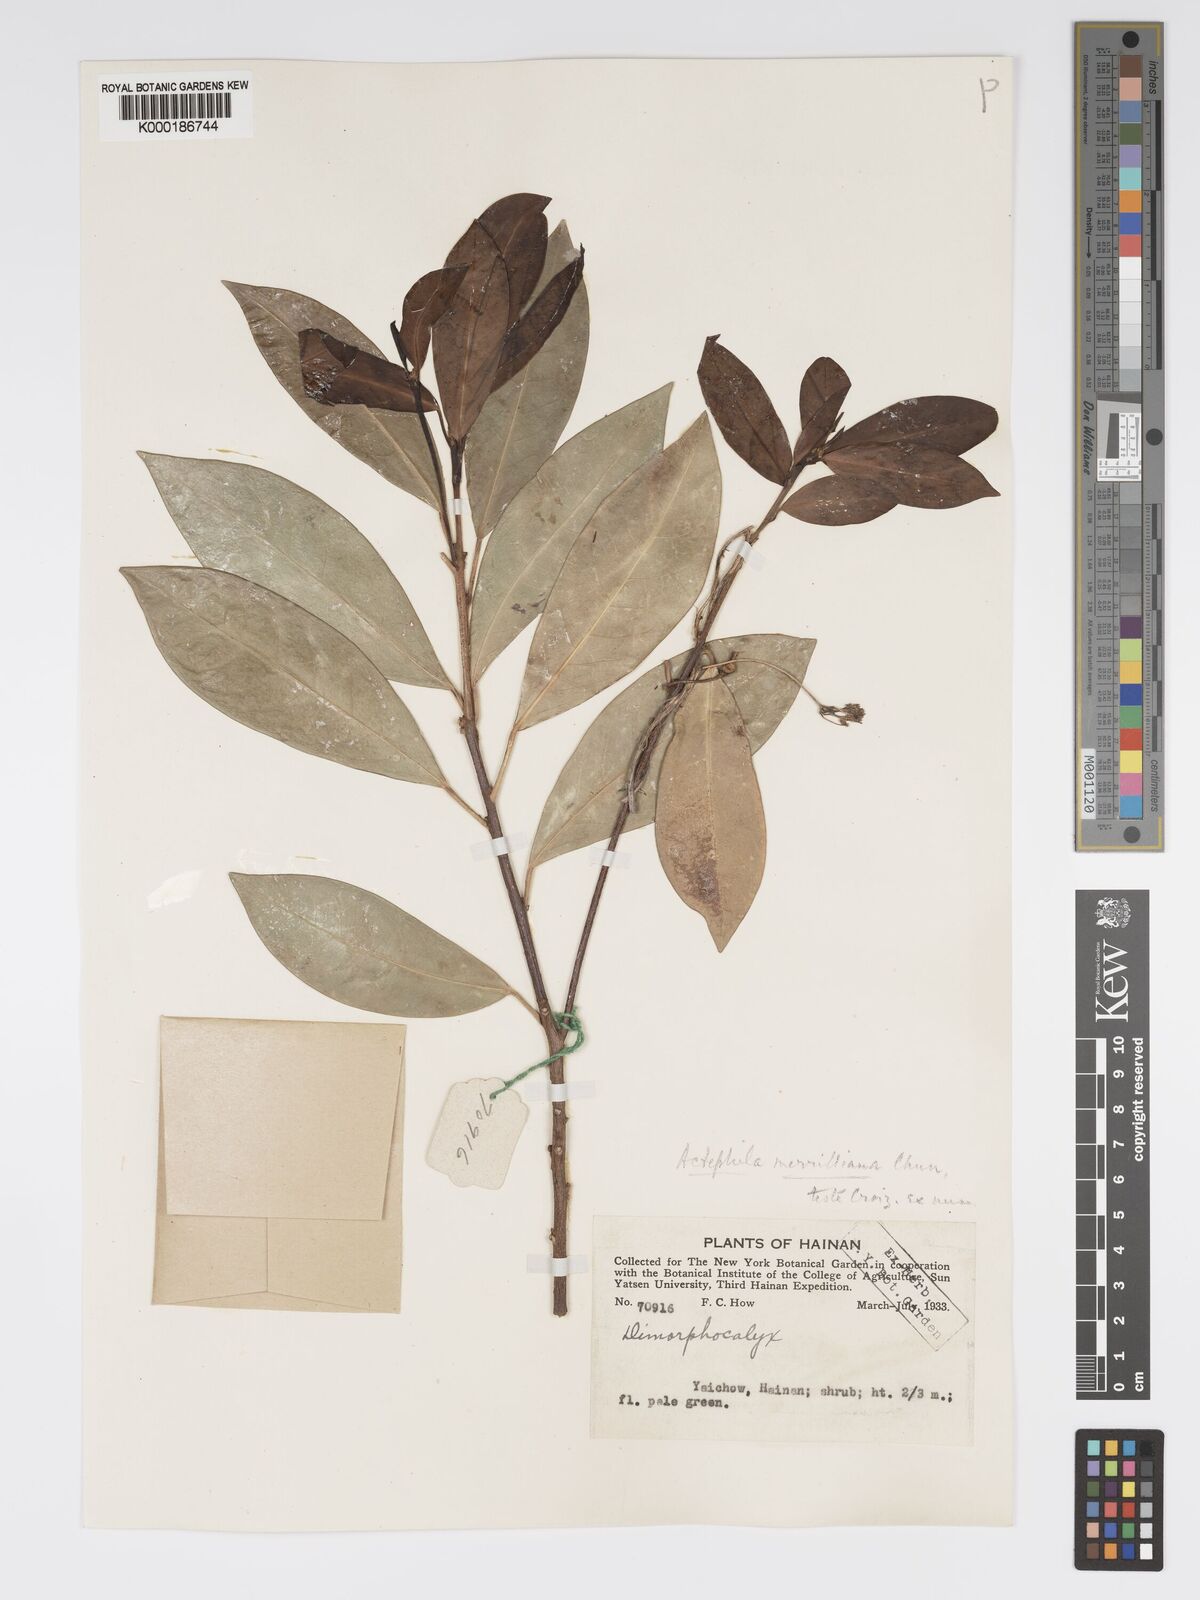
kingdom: Plantae
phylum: Tracheophyta
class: Magnoliopsida
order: Malpighiales
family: Phyllanthaceae
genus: Actephila
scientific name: Actephila merrilliana
